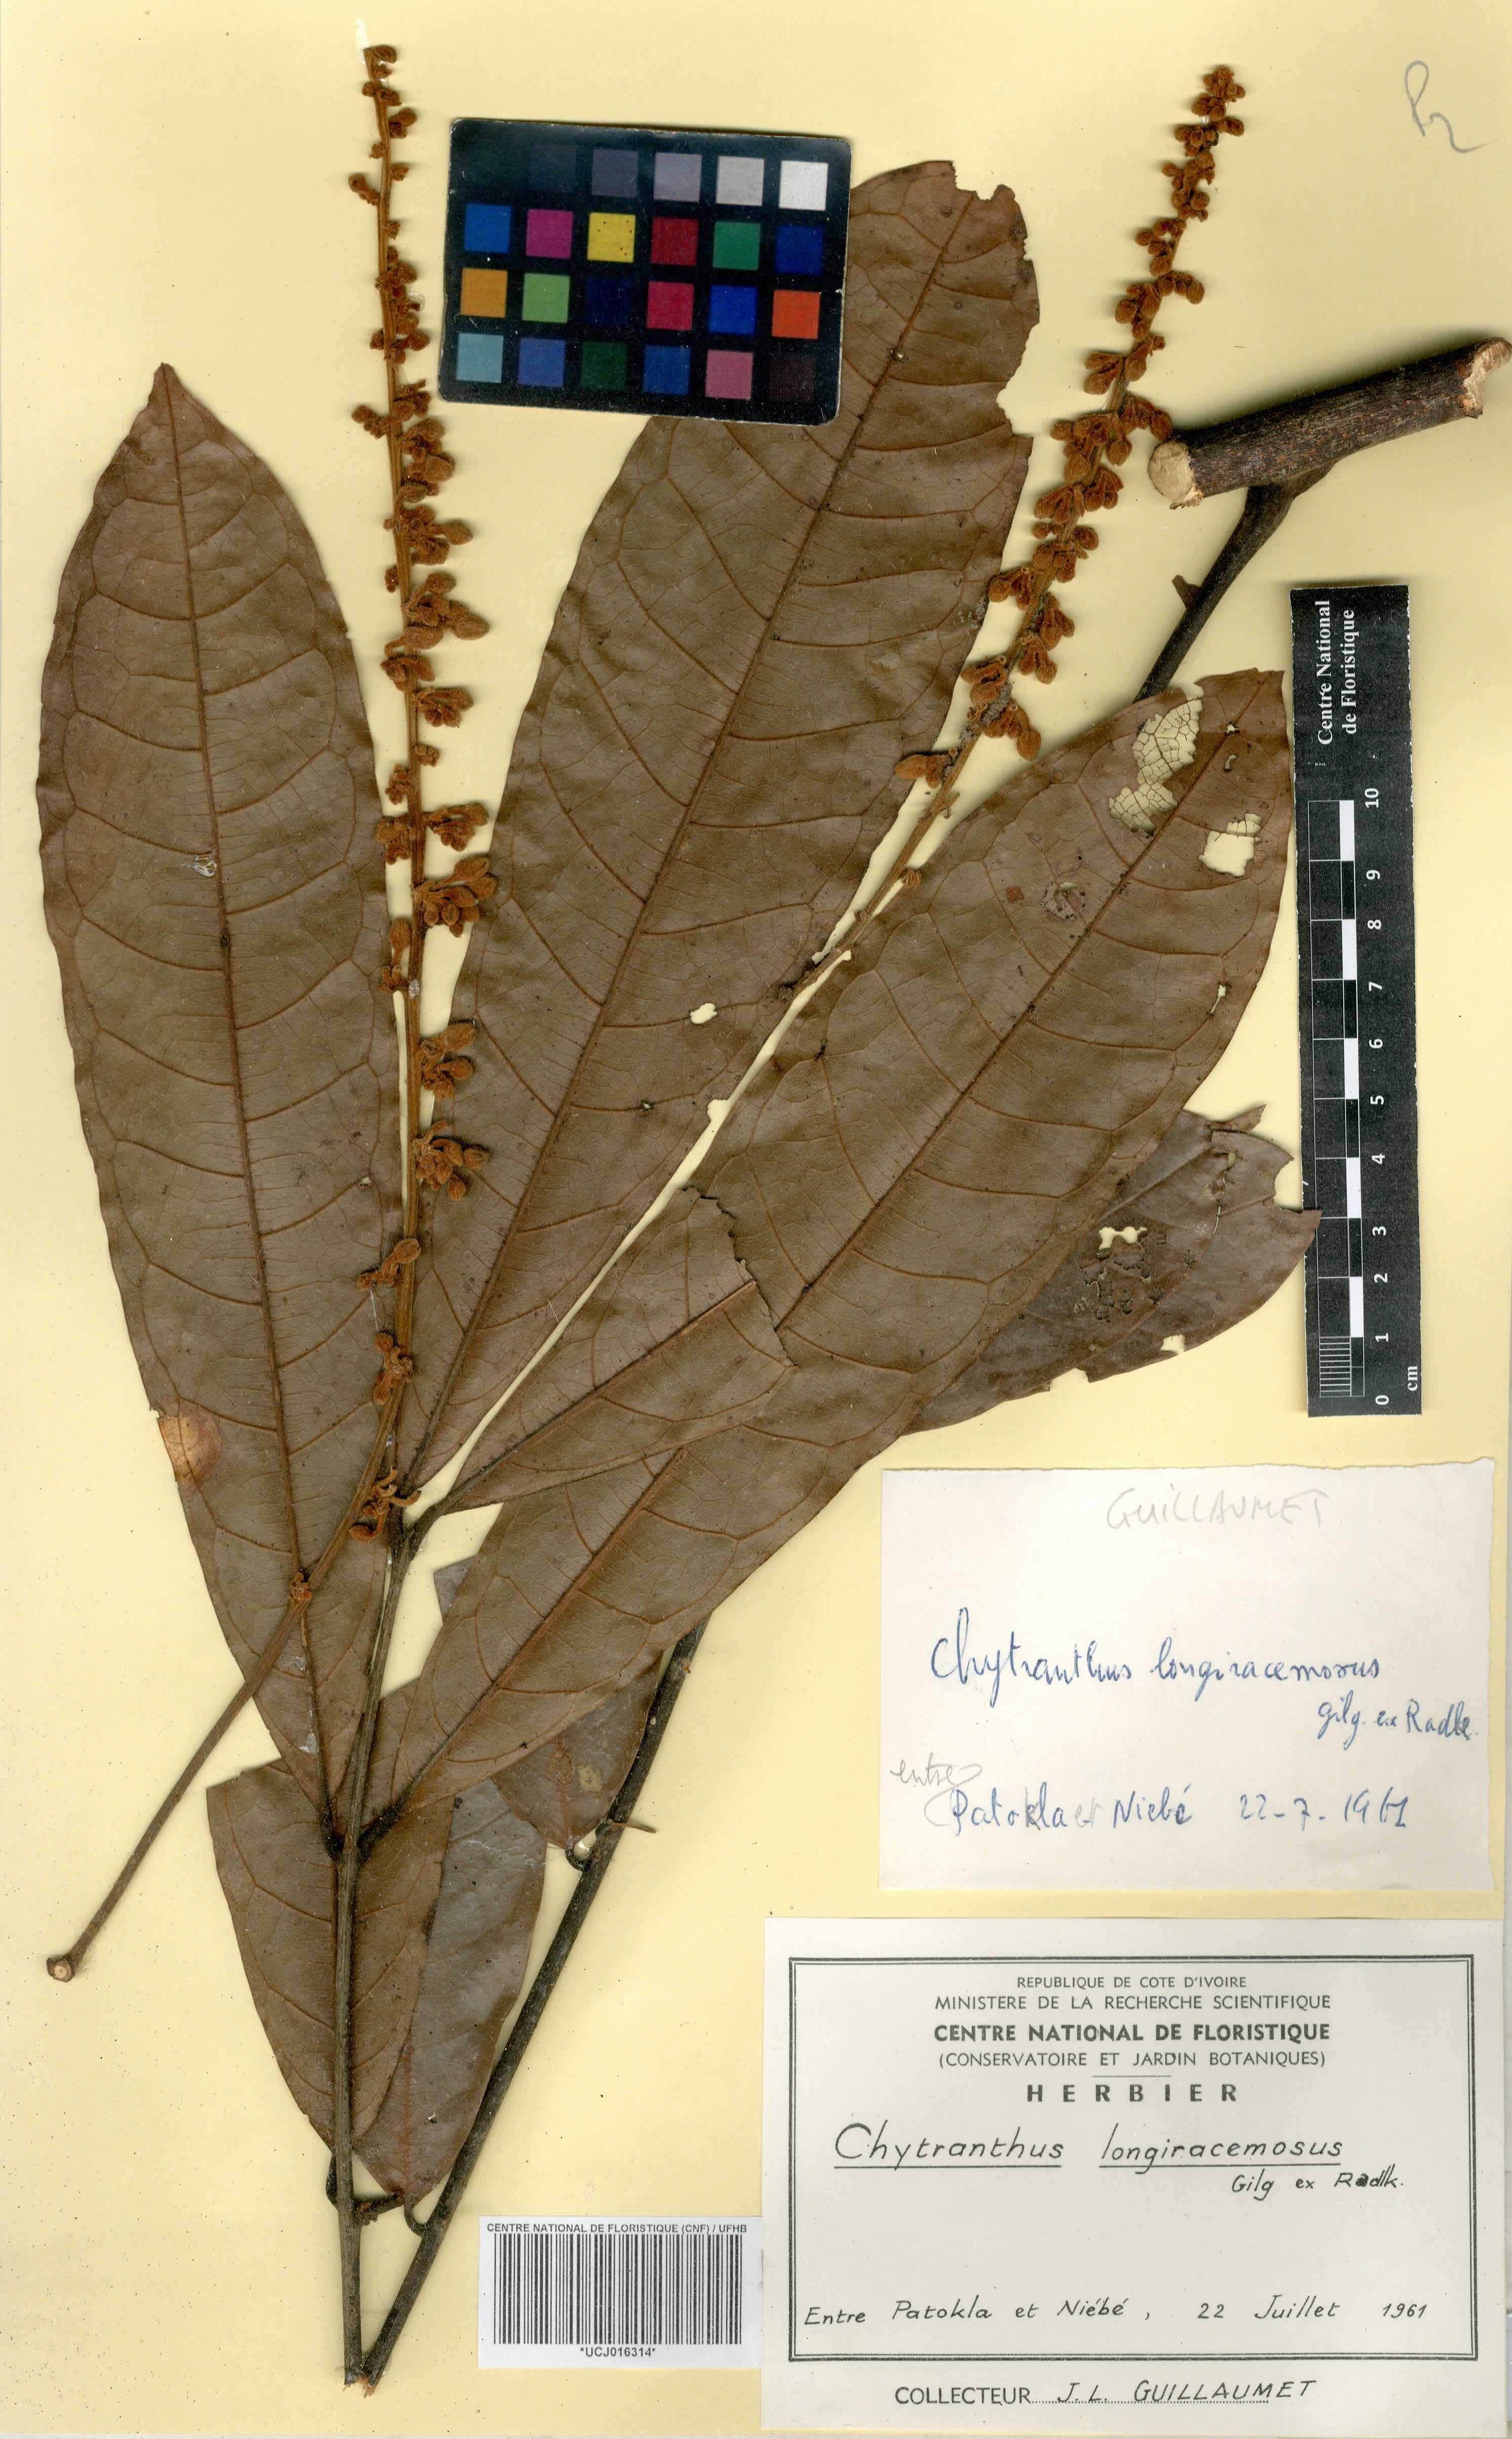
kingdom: Plantae
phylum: Tracheophyta
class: Magnoliopsida
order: Sapindales
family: Sapindaceae
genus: Chytranthus
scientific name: Chytranthus carneus
